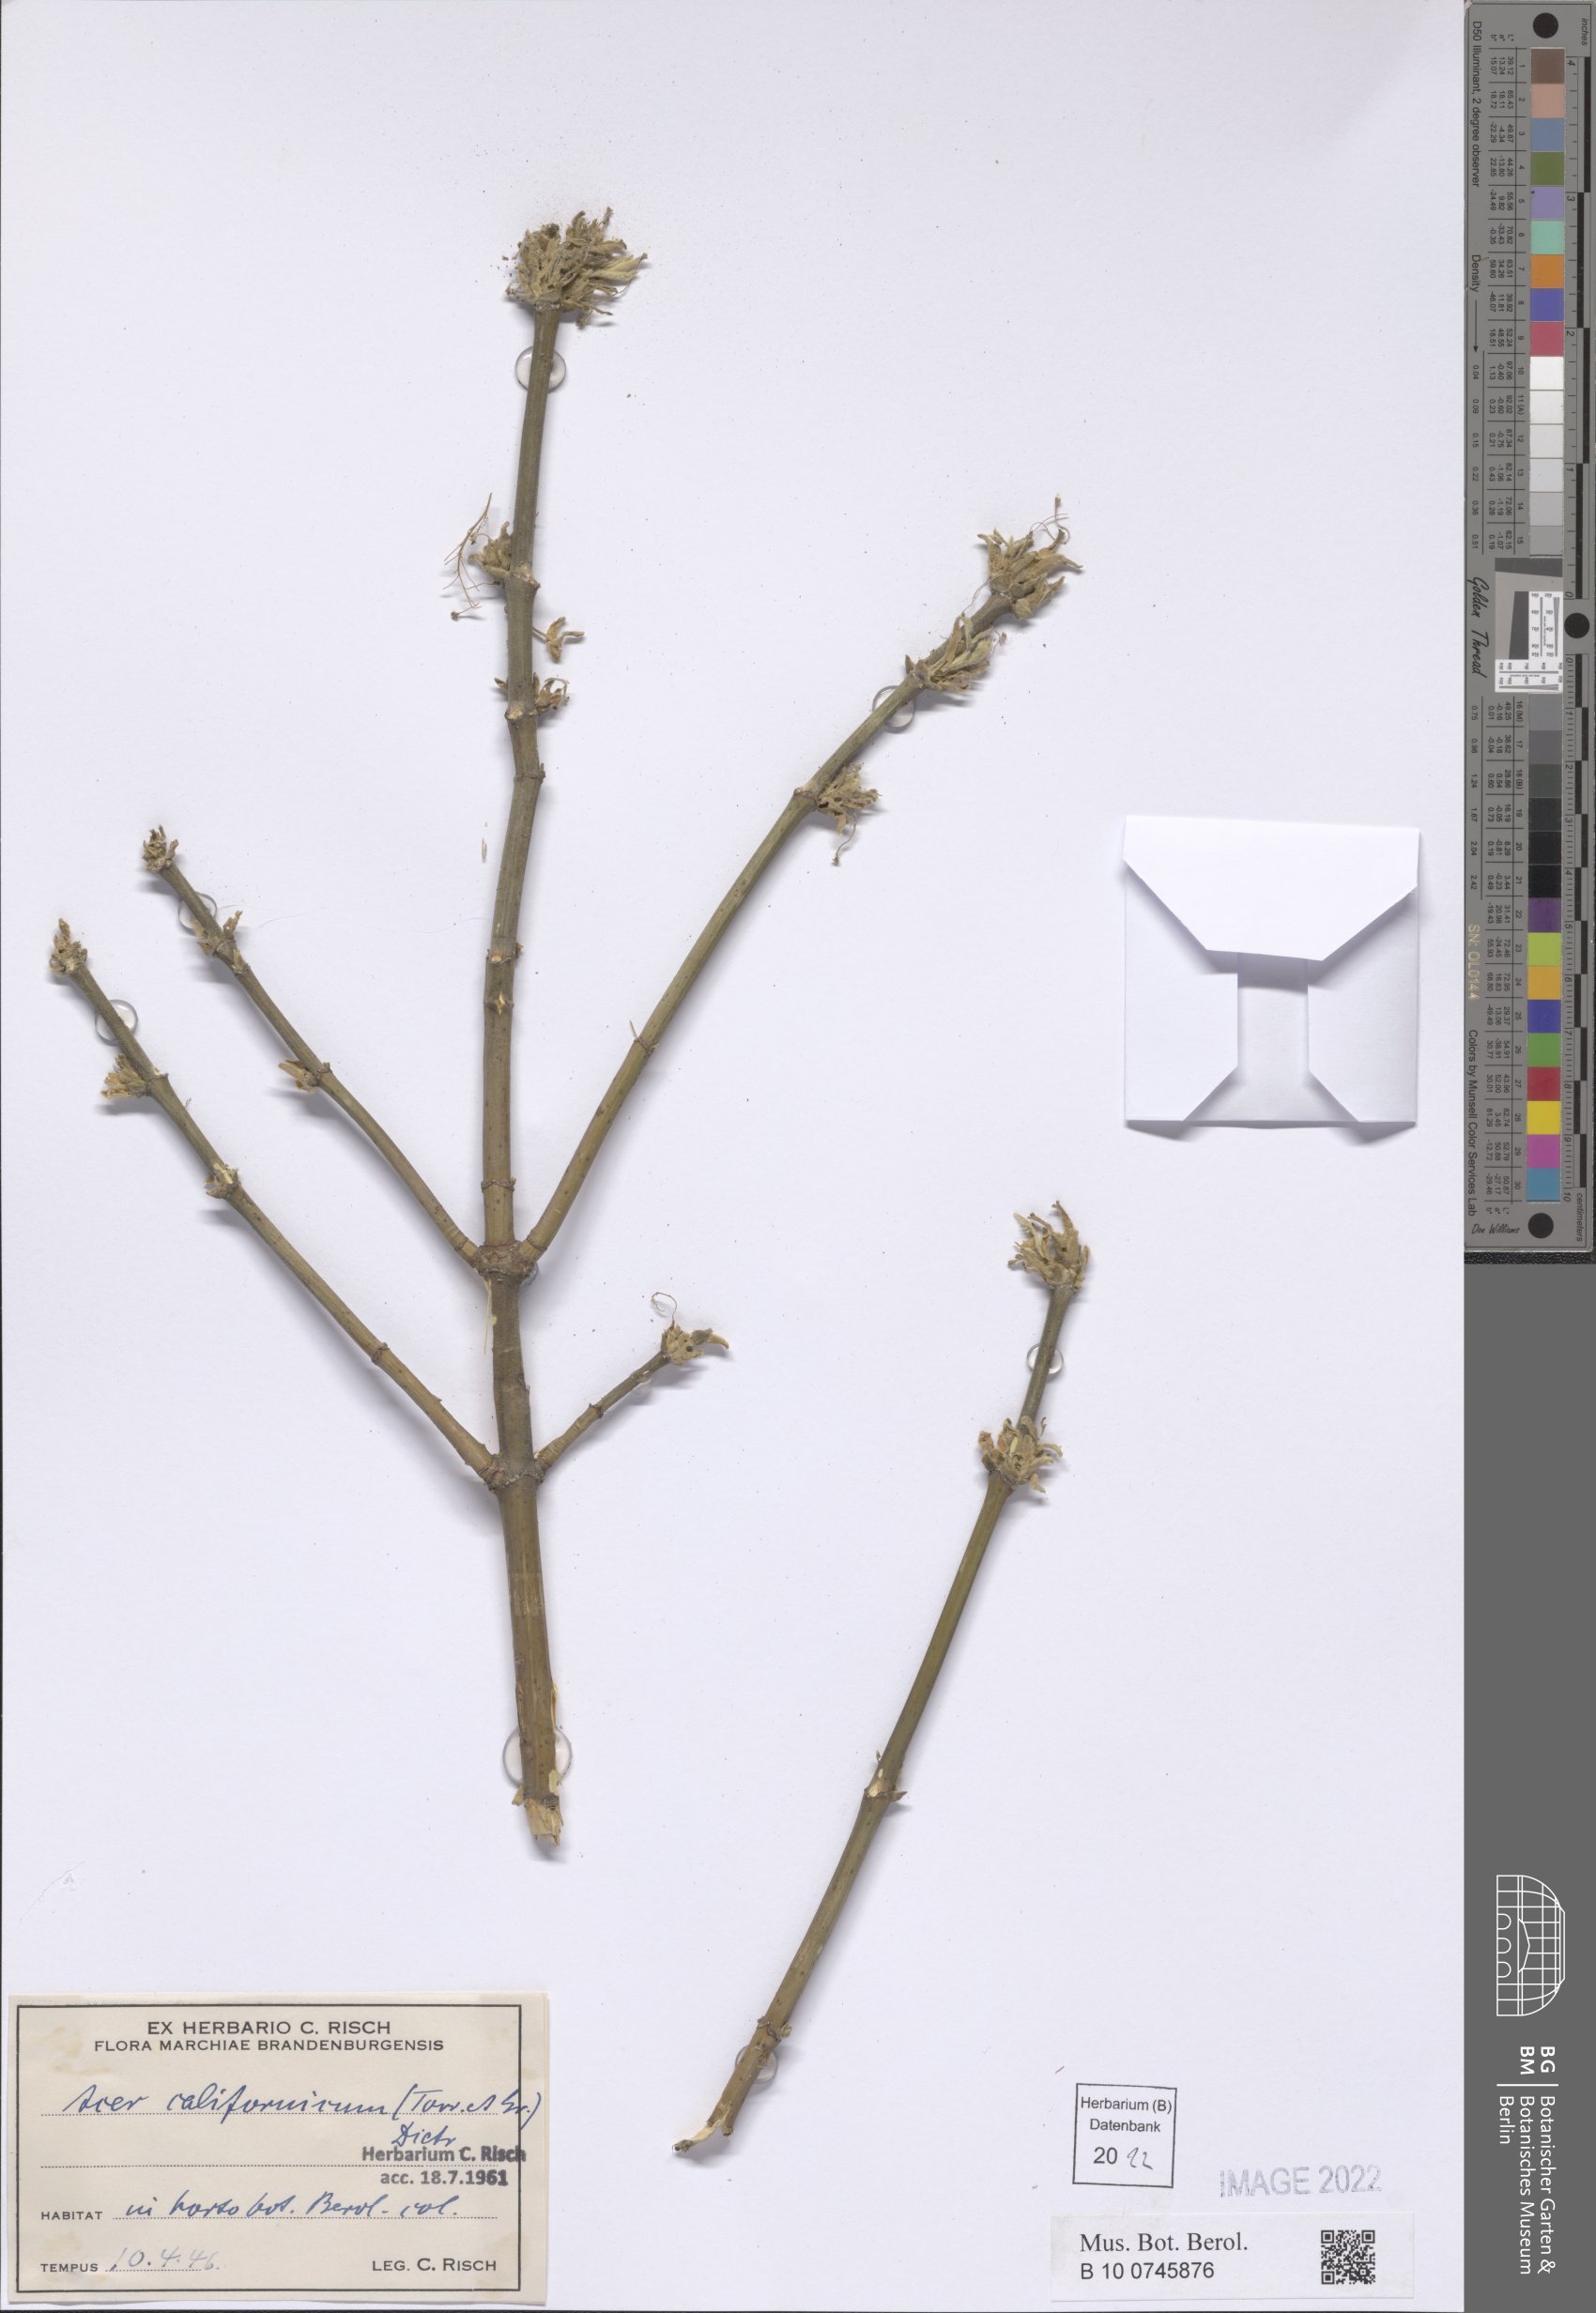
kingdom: Plantae
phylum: Tracheophyta
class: Magnoliopsida
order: Sapindales
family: Sapindaceae
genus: Acer
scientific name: Acer negundo
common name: Ashleaf maple
